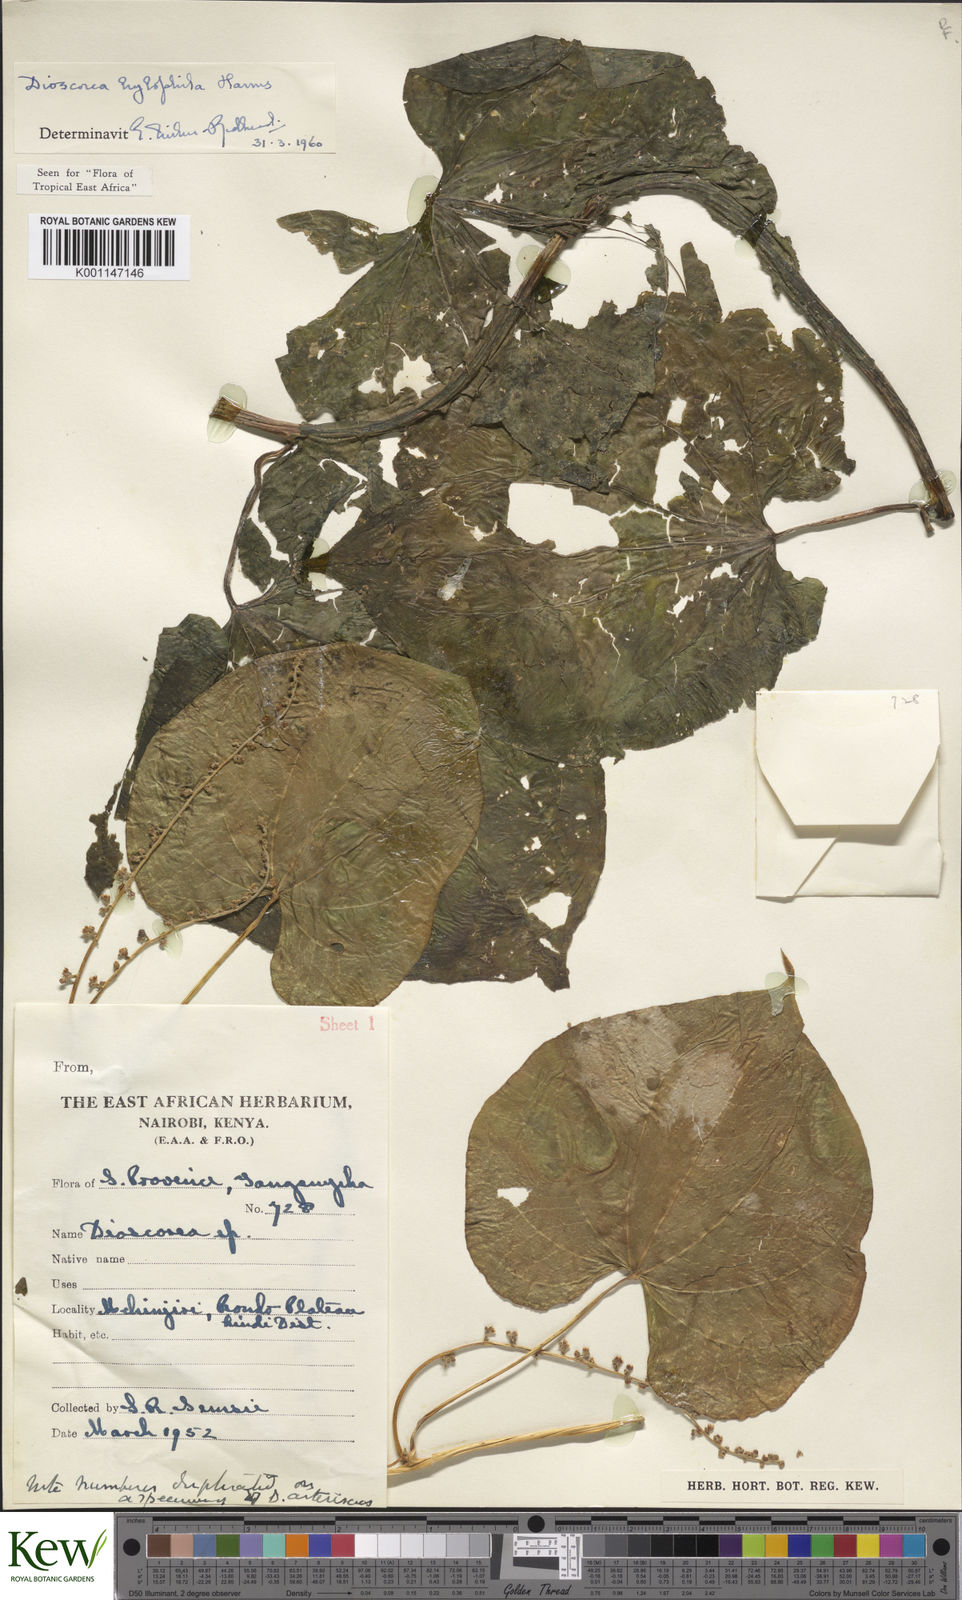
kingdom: Plantae
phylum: Tracheophyta
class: Liliopsida
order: Dioscoreales
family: Dioscoreaceae
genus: Dioscorea
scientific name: Dioscorea
